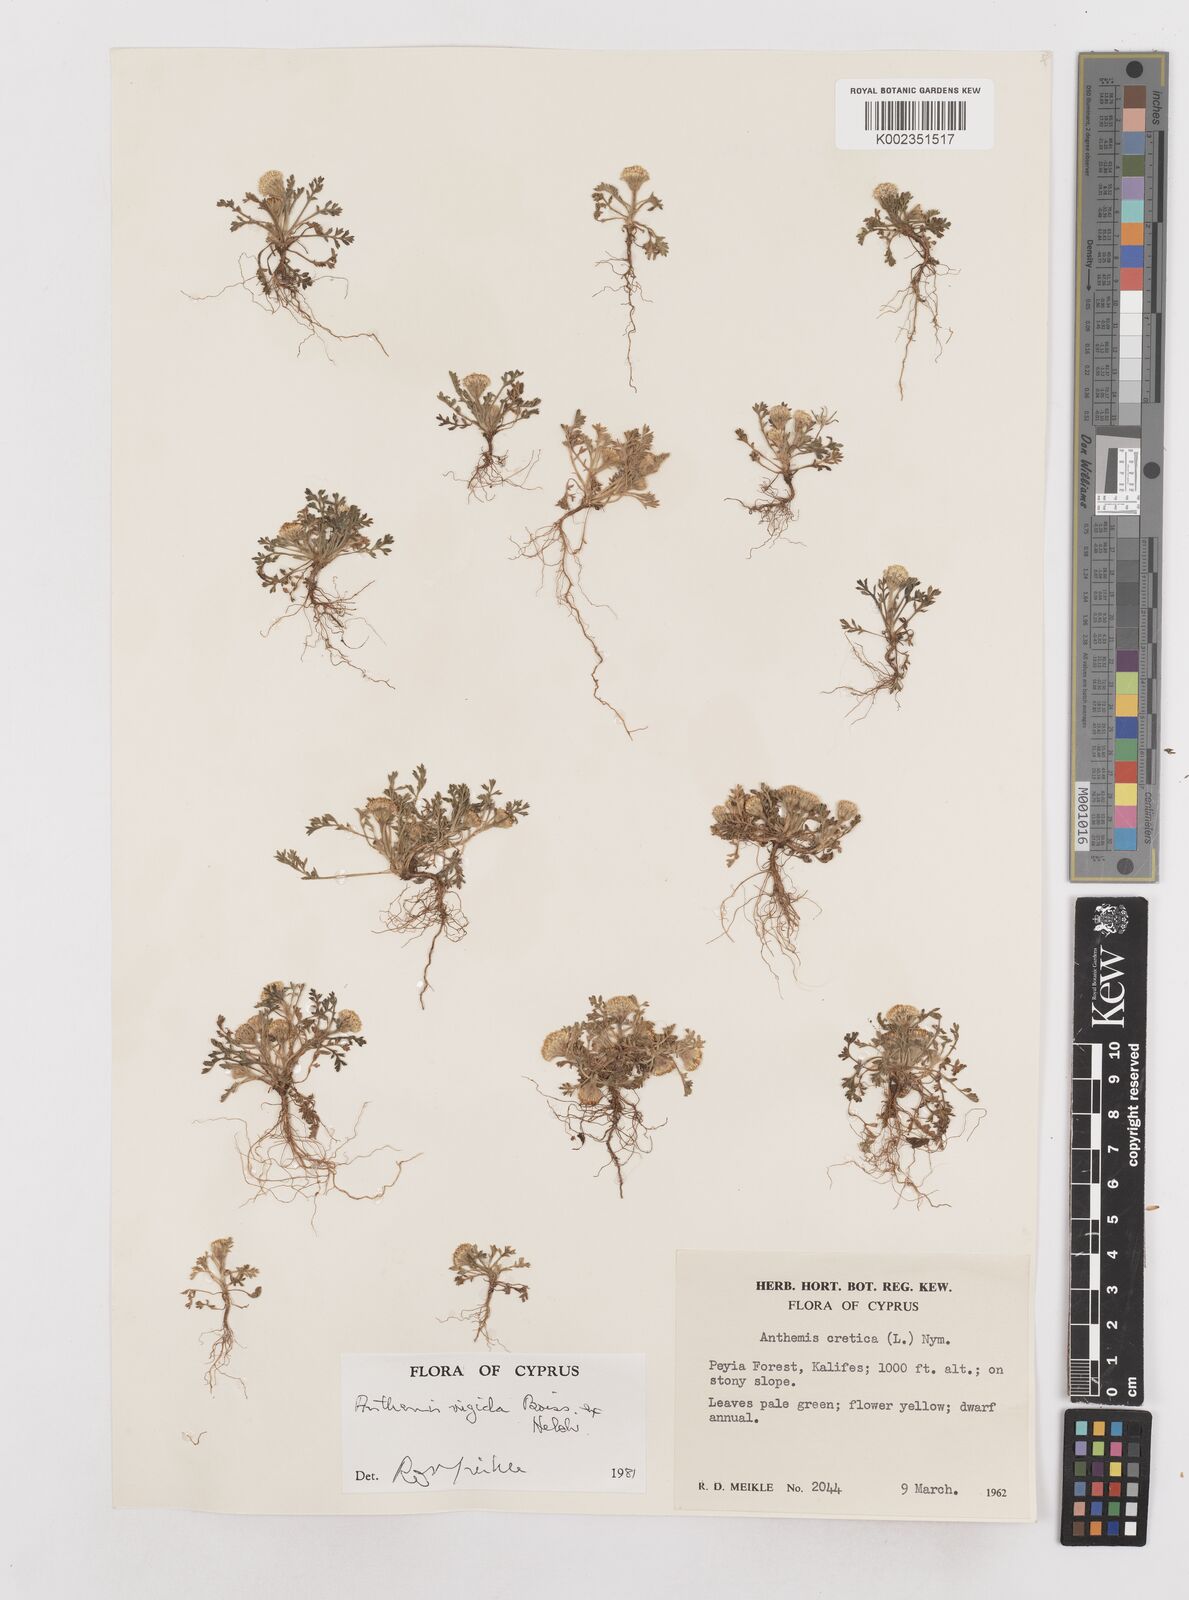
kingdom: Plantae
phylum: Tracheophyta
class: Magnoliopsida
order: Asterales
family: Asteraceae
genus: Anthemis
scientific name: Anthemis rigida
